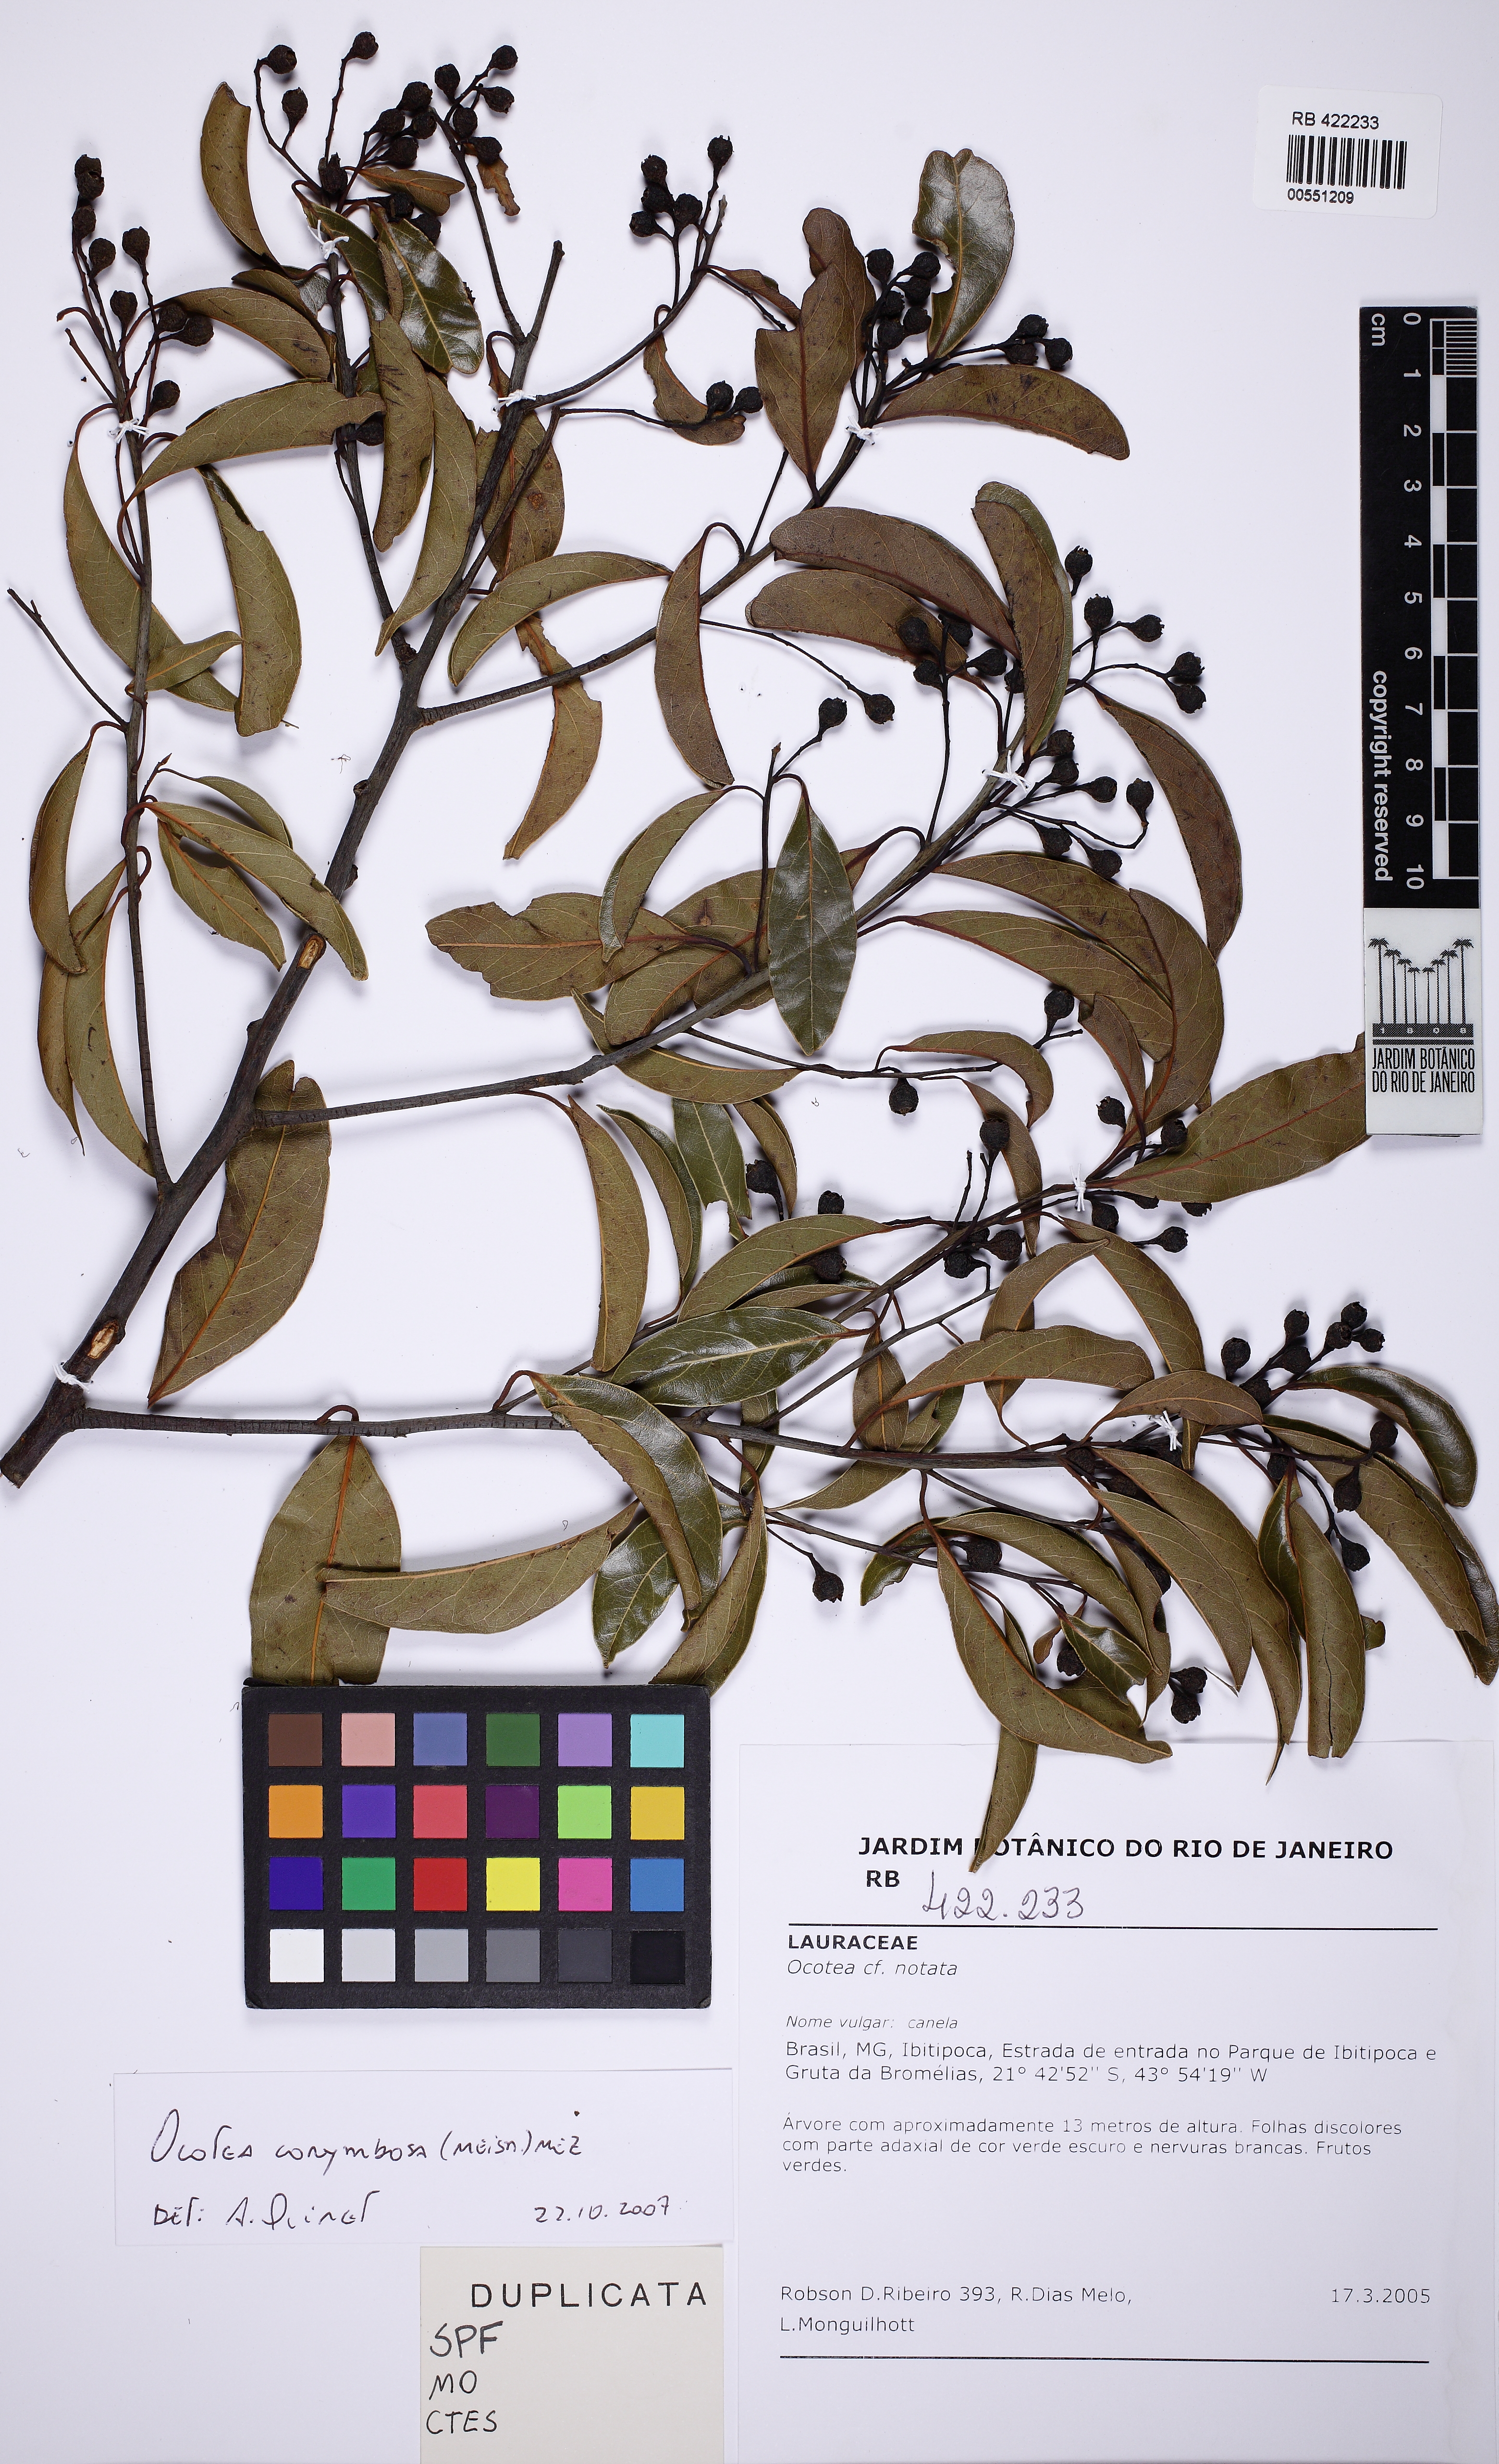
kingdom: Plantae
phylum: Tracheophyta
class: Magnoliopsida
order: Laurales
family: Lauraceae
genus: Mespilodaphne
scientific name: Mespilodaphne corymbosa
